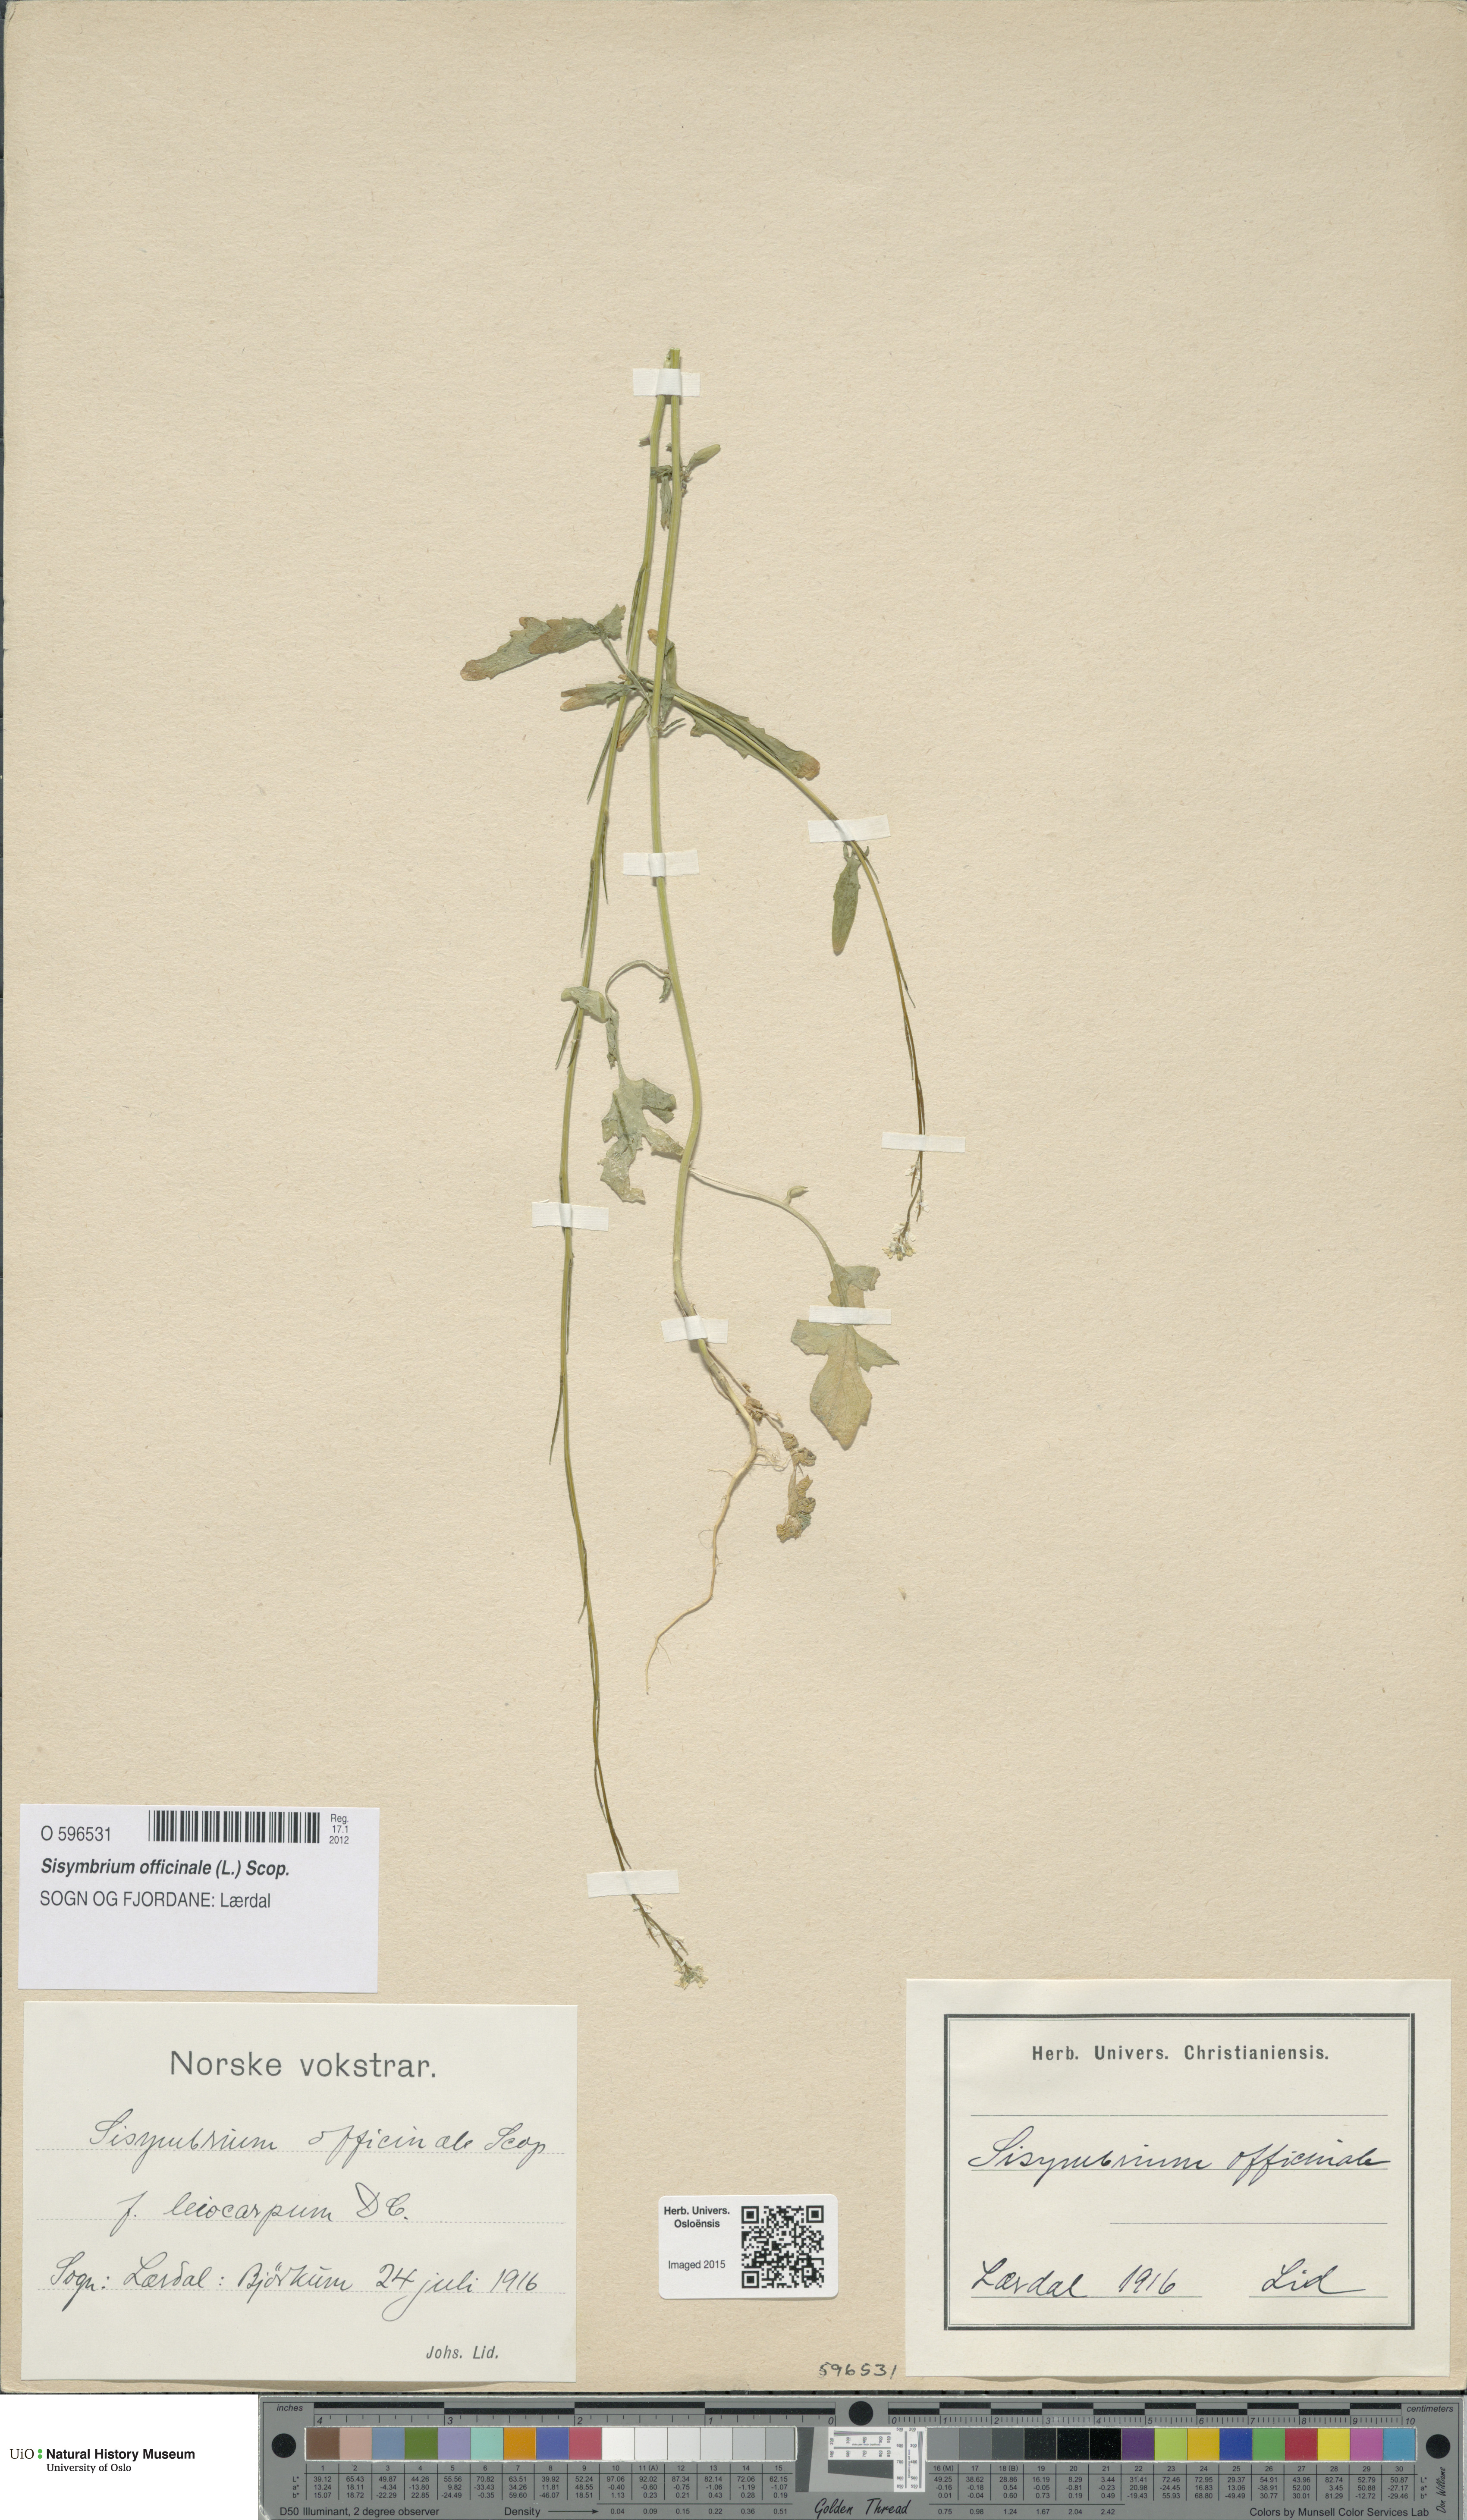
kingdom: Plantae
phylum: Tracheophyta
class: Magnoliopsida
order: Brassicales
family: Brassicaceae
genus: Sisymbrium
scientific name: Sisymbrium officinale
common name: Hedge mustard
